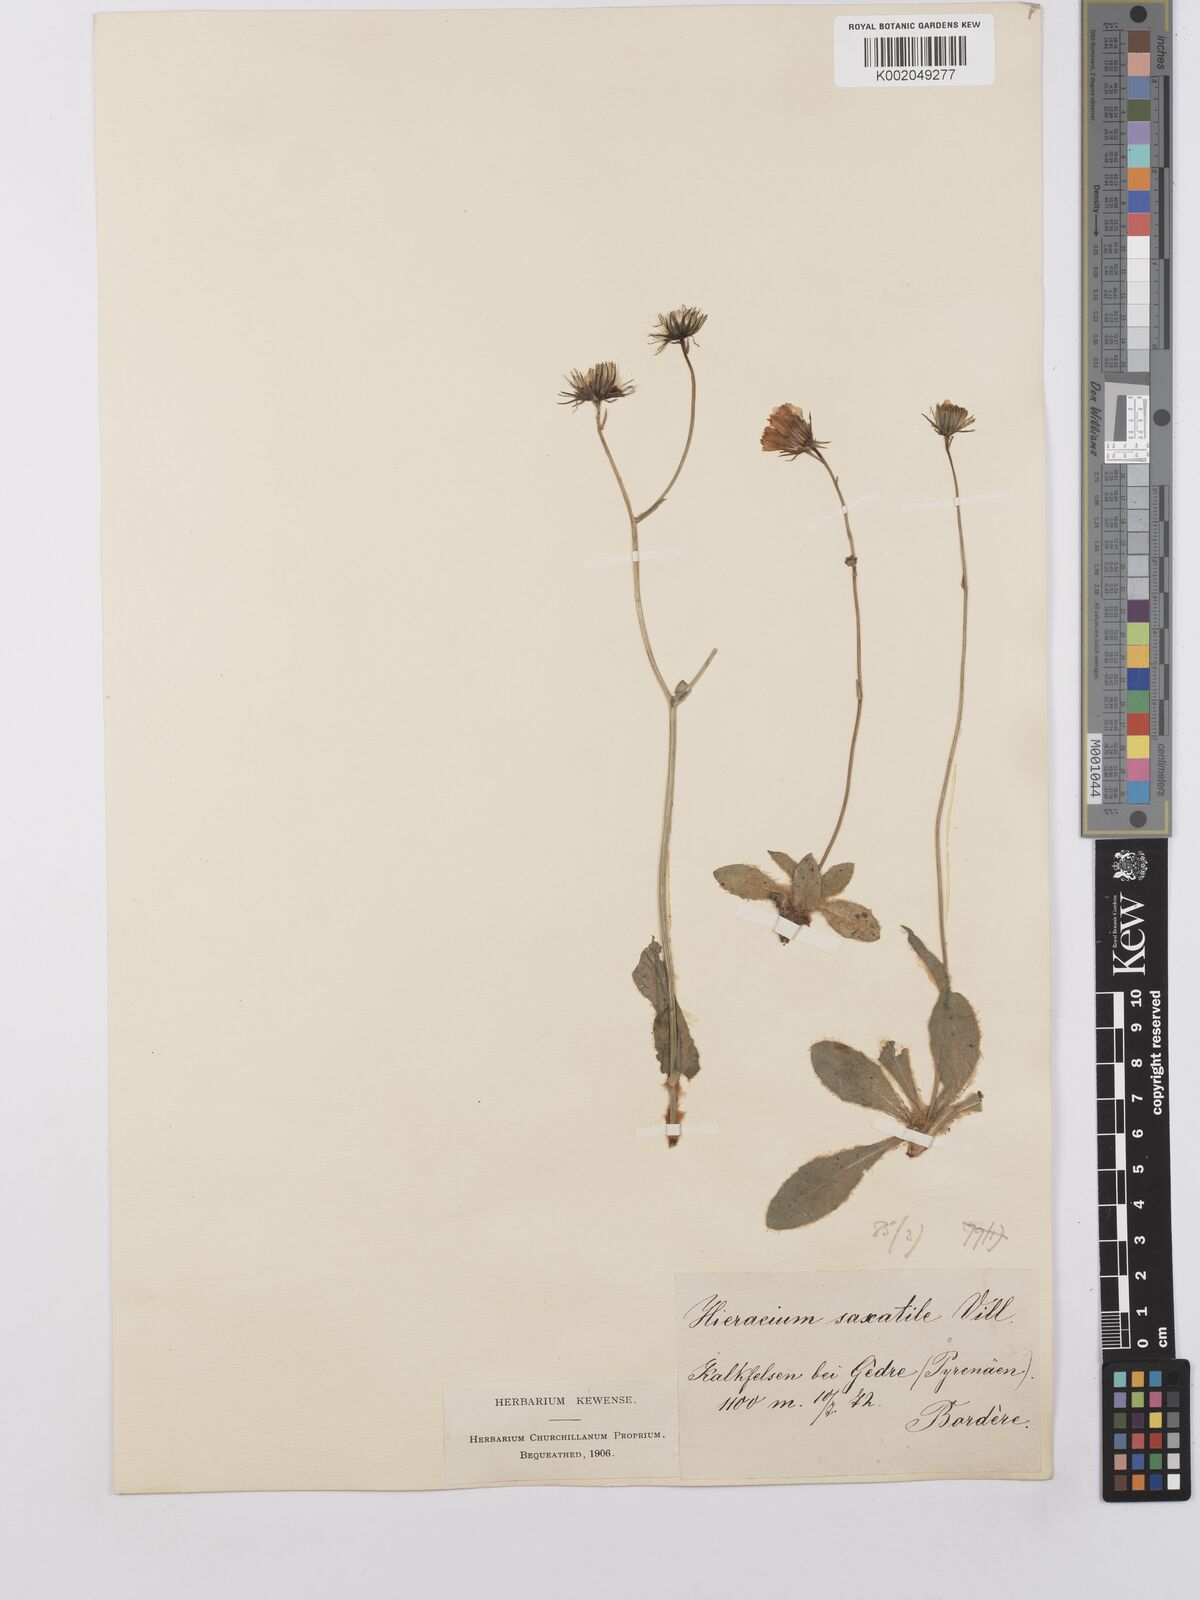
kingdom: Plantae
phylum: Tracheophyta
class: Magnoliopsida
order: Asterales
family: Asteraceae
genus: Hieracium
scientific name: Hieracium
